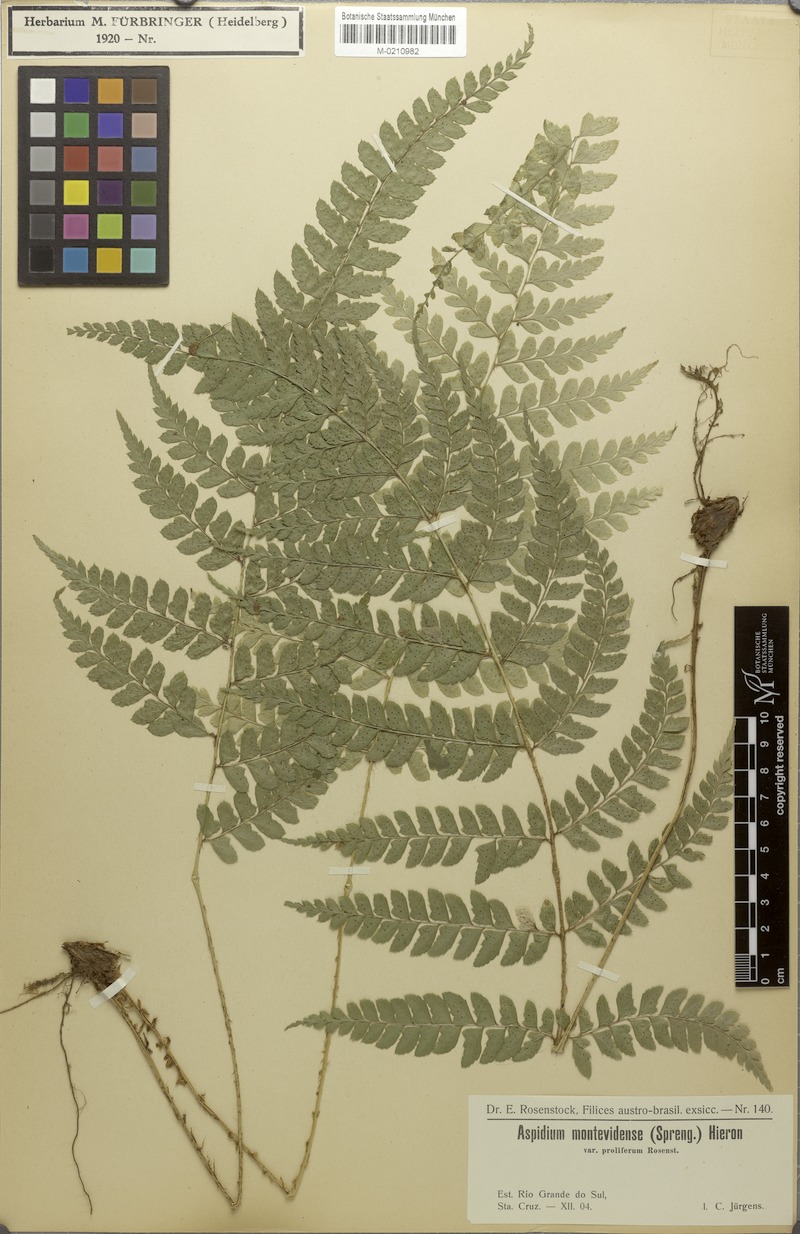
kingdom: Plantae
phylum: Tracheophyta
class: Polypodiopsida
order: Polypodiales
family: Dryopteridaceae
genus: Polystichum
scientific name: Polystichum platyphyllum
